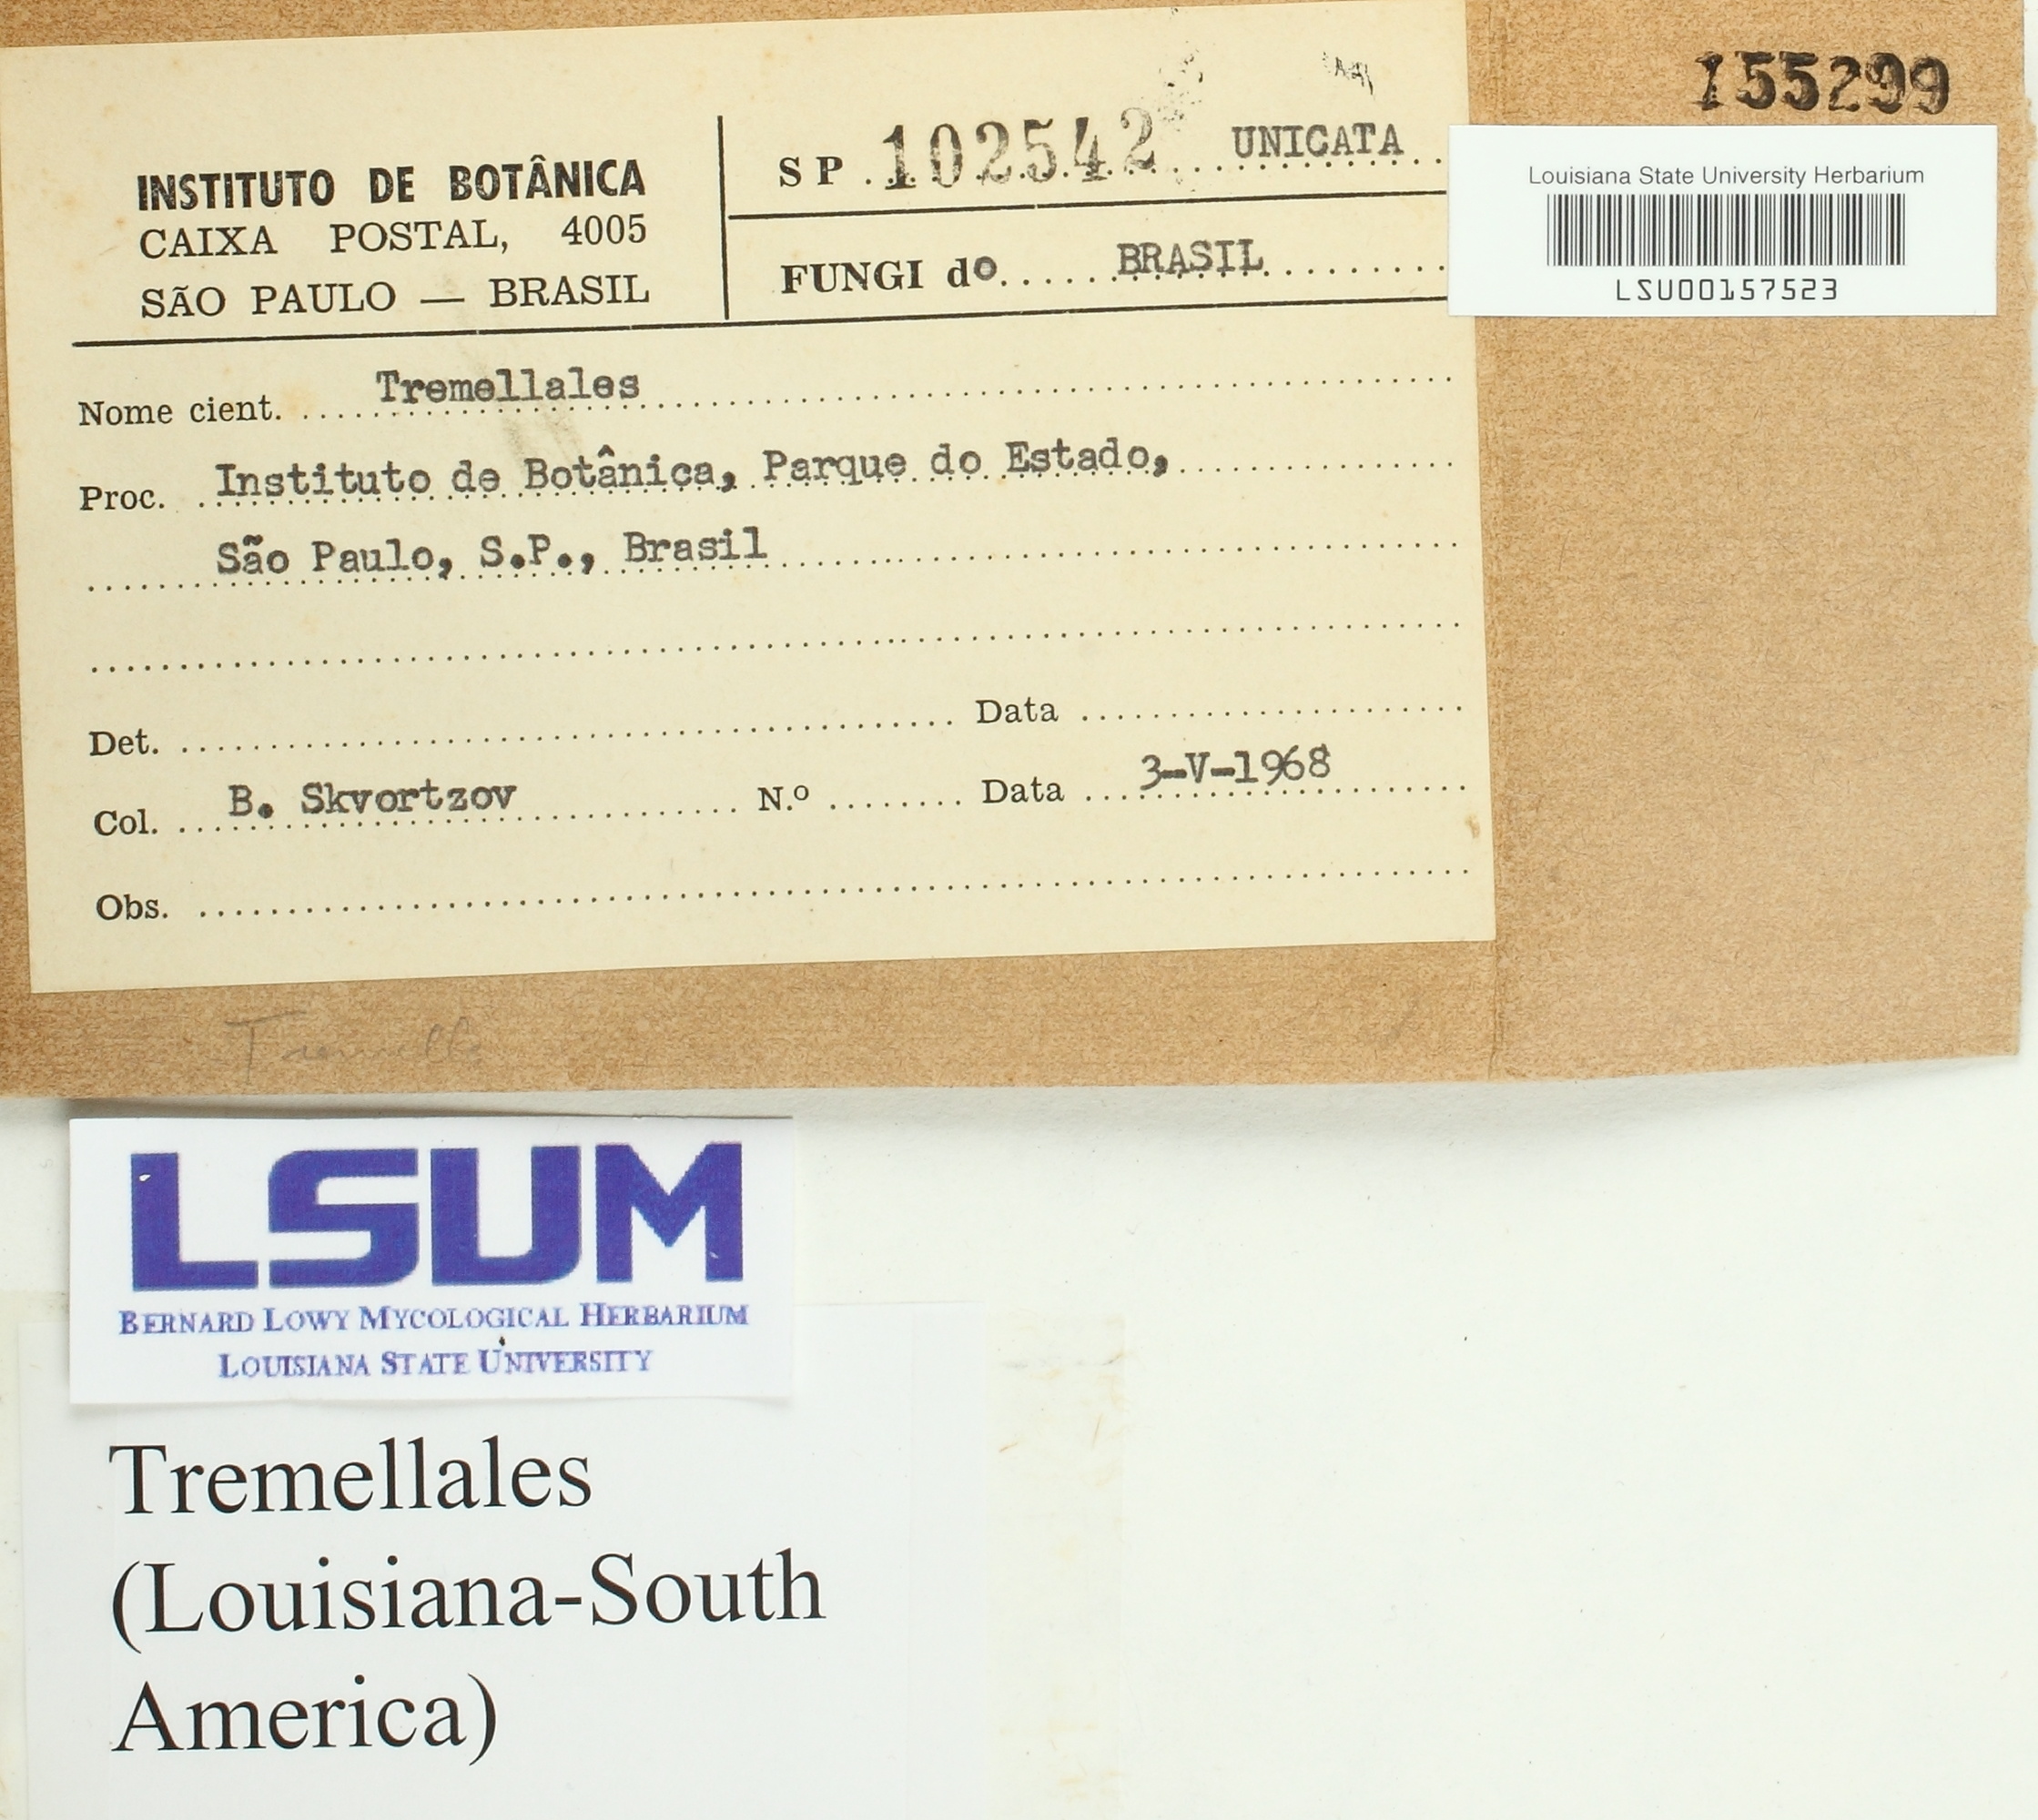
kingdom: Fungi
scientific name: Fungi
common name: Fungi
